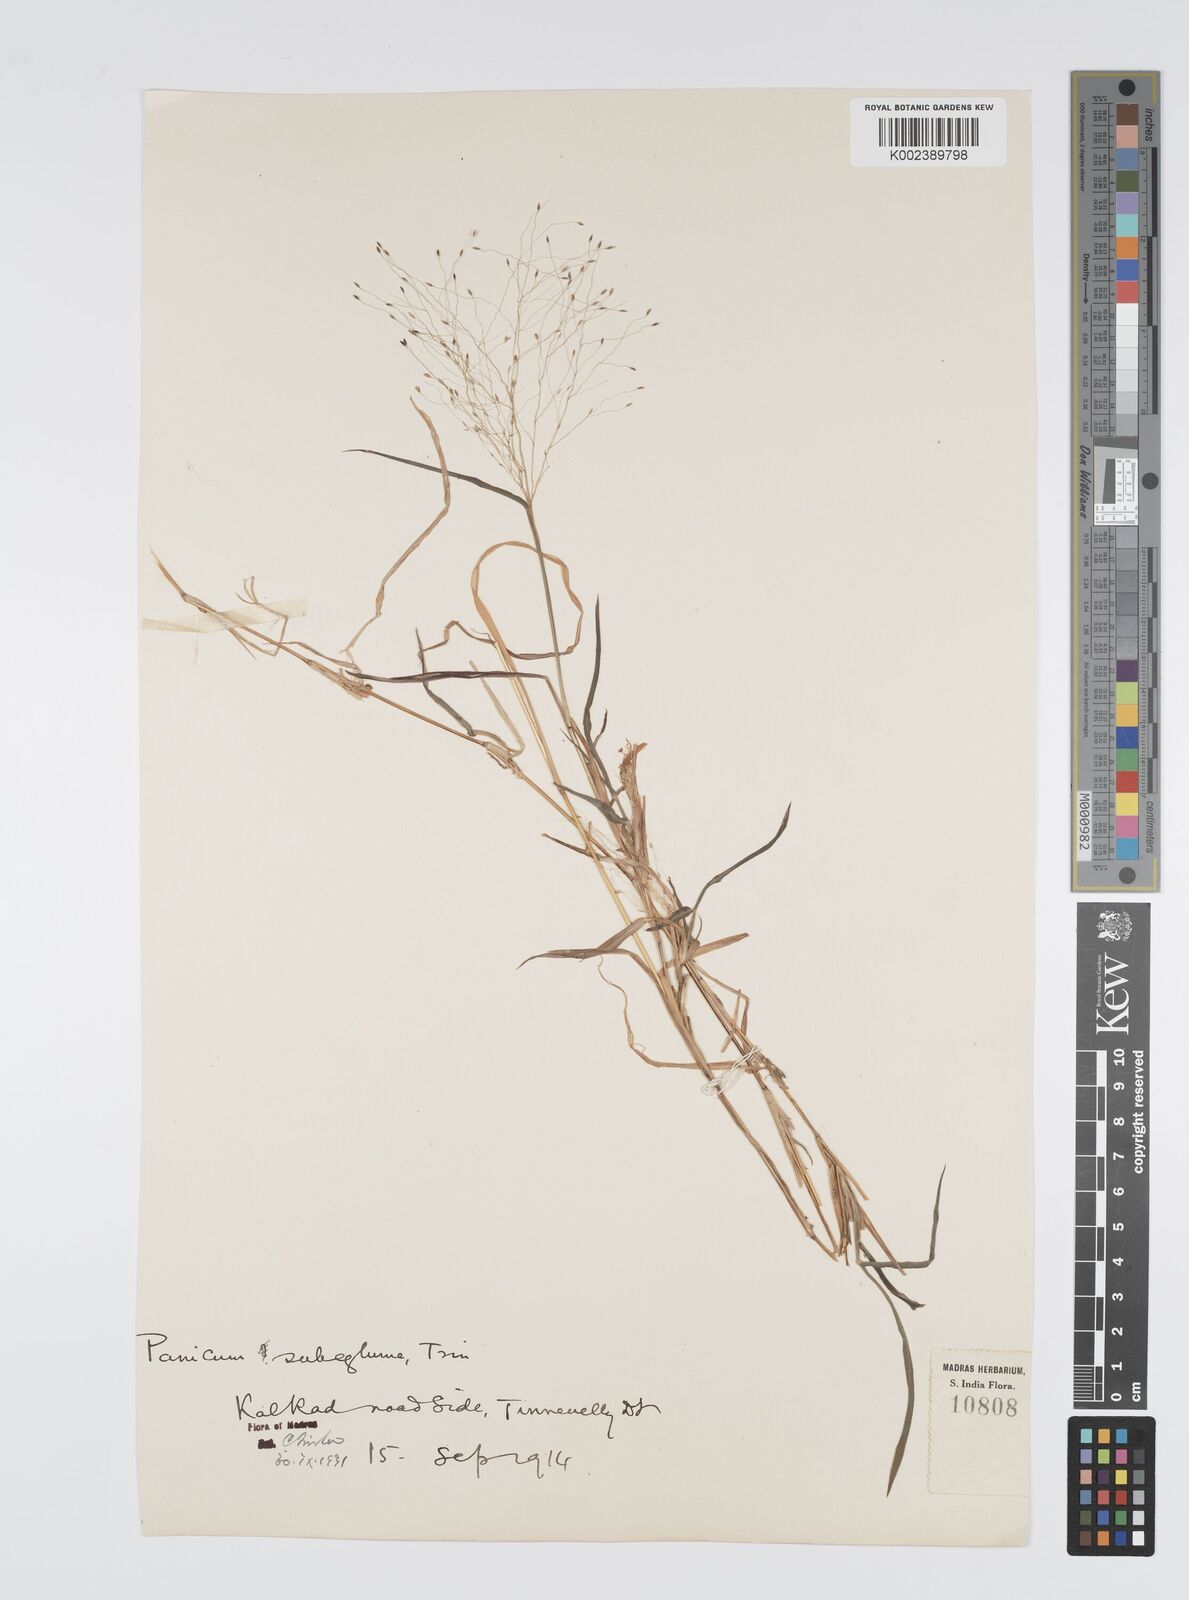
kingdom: Plantae
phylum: Tracheophyta
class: Liliopsida
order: Poales
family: Poaceae
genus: Digitaria
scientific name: Digitaria tomentosa
